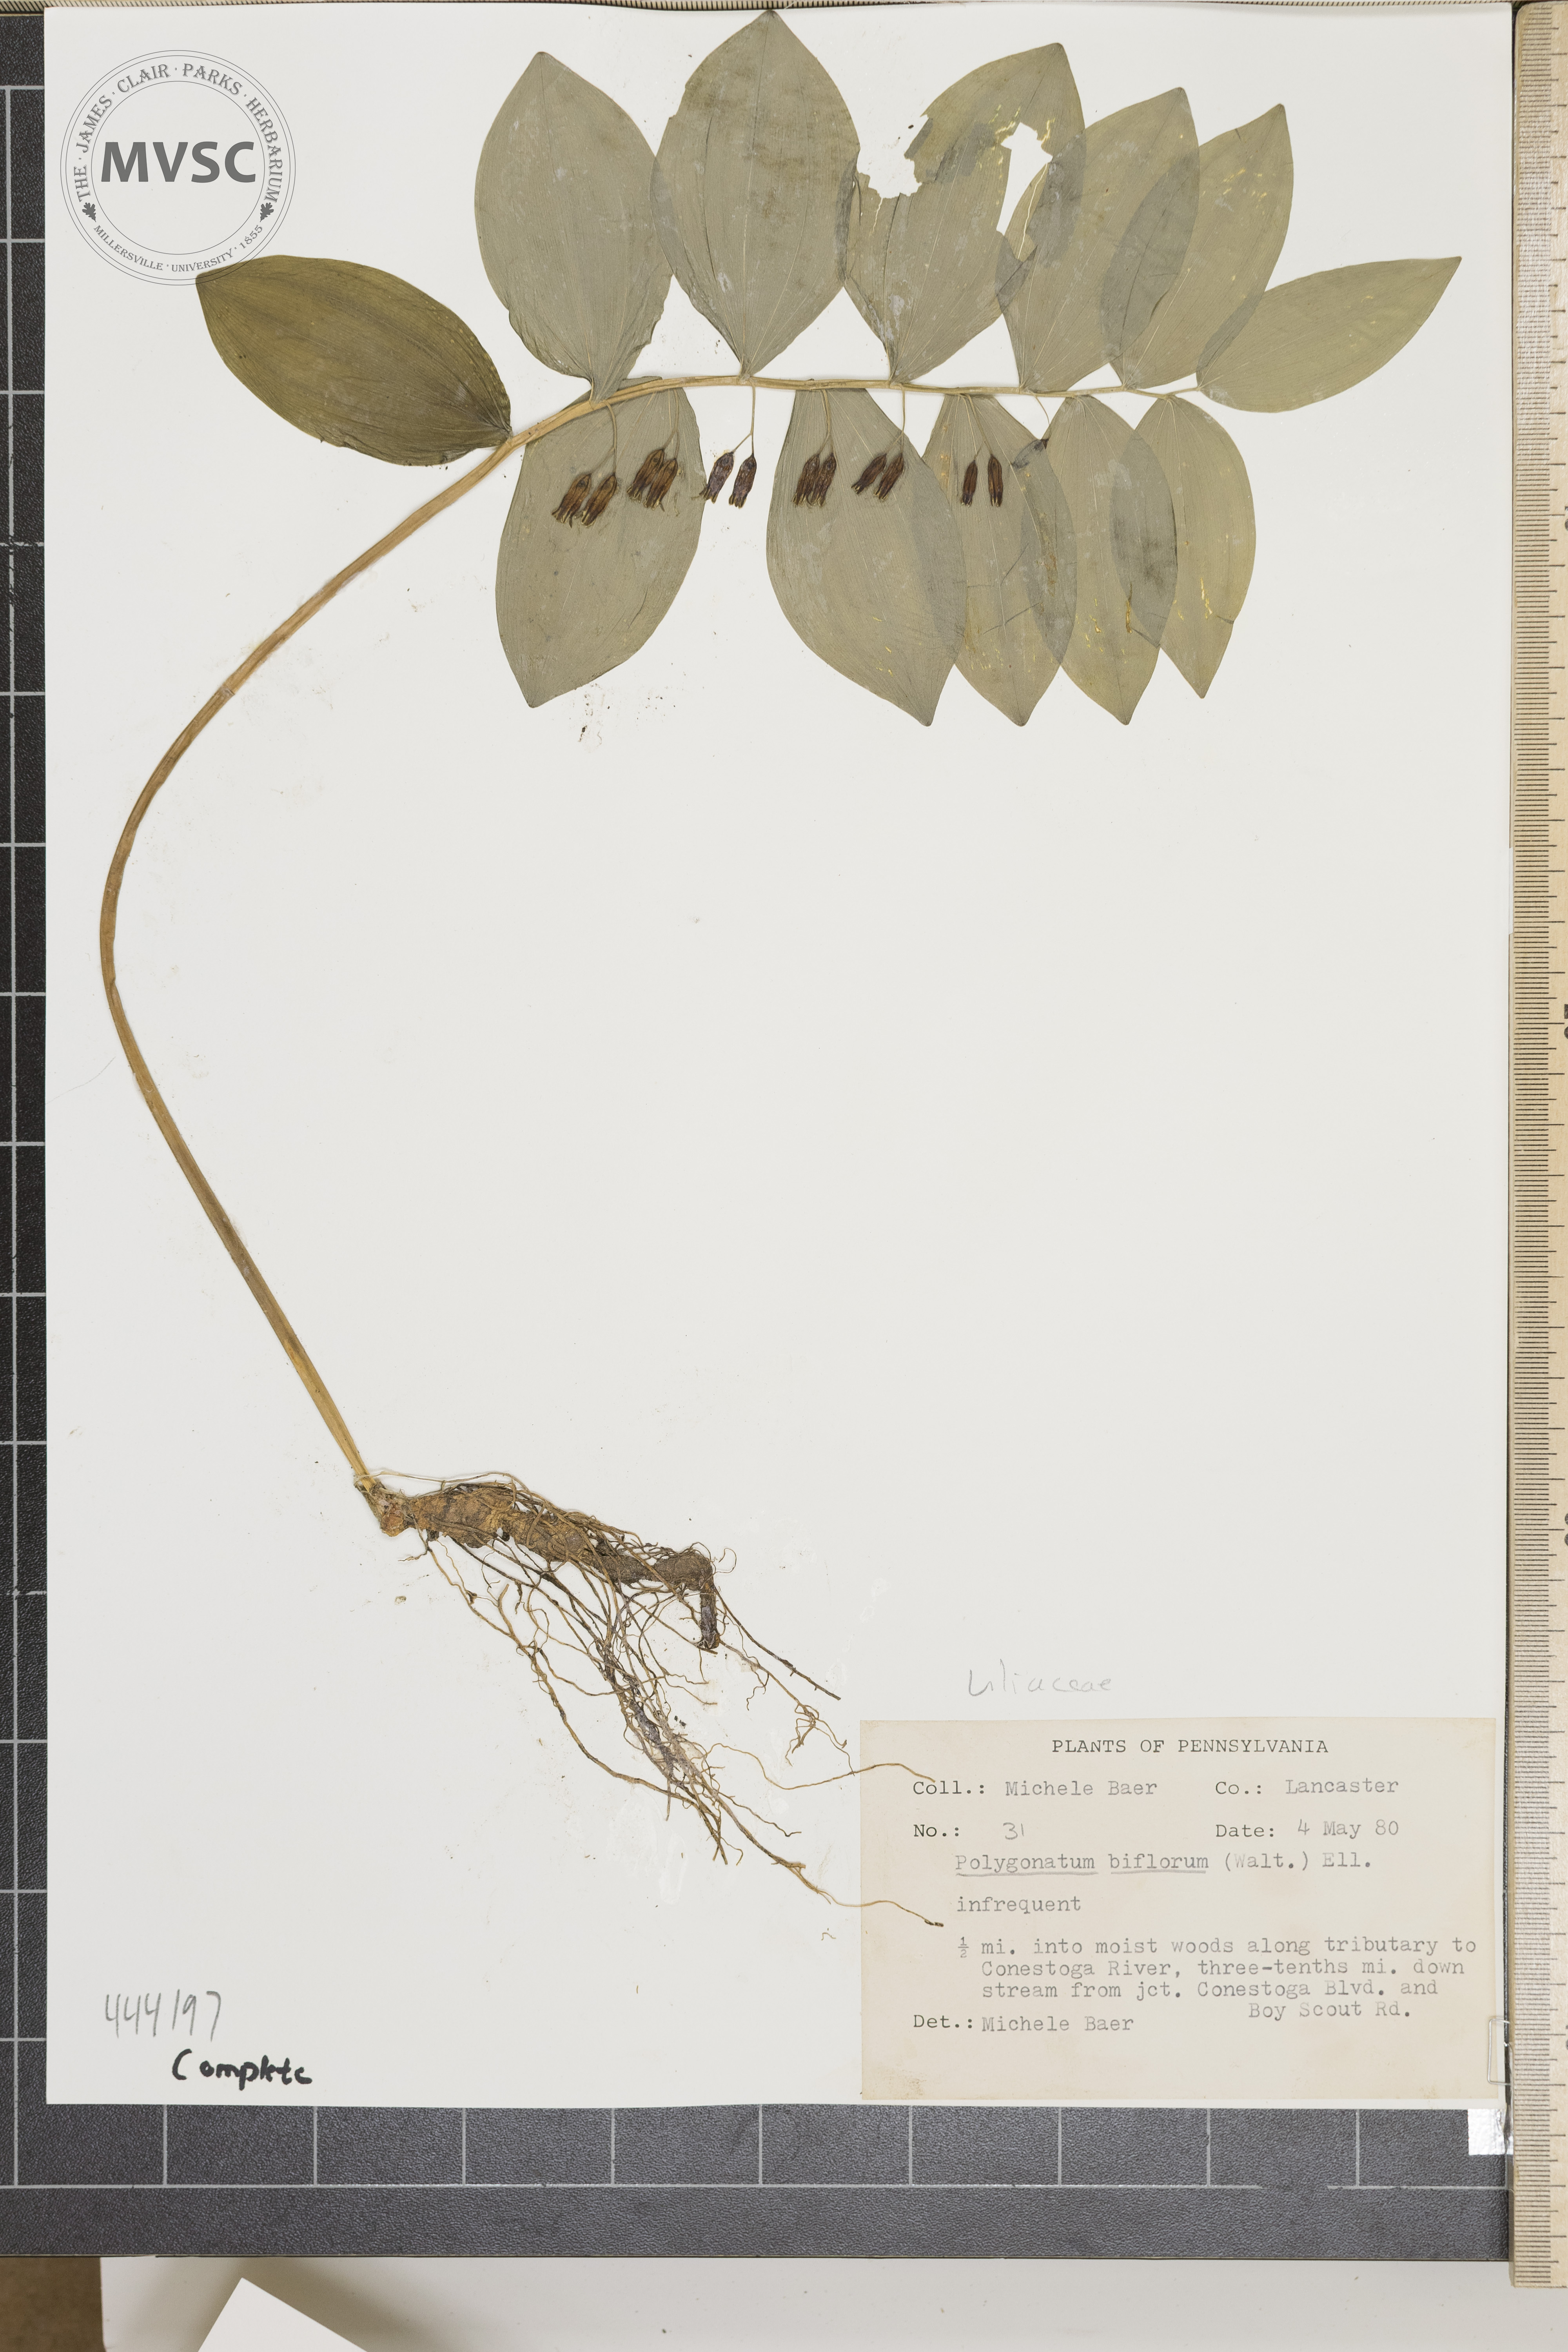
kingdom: Plantae
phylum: Tracheophyta
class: Liliopsida
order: Asparagales
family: Asparagaceae
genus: Polygonatum
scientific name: Polygonatum biflorum
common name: American solomon's-seal
